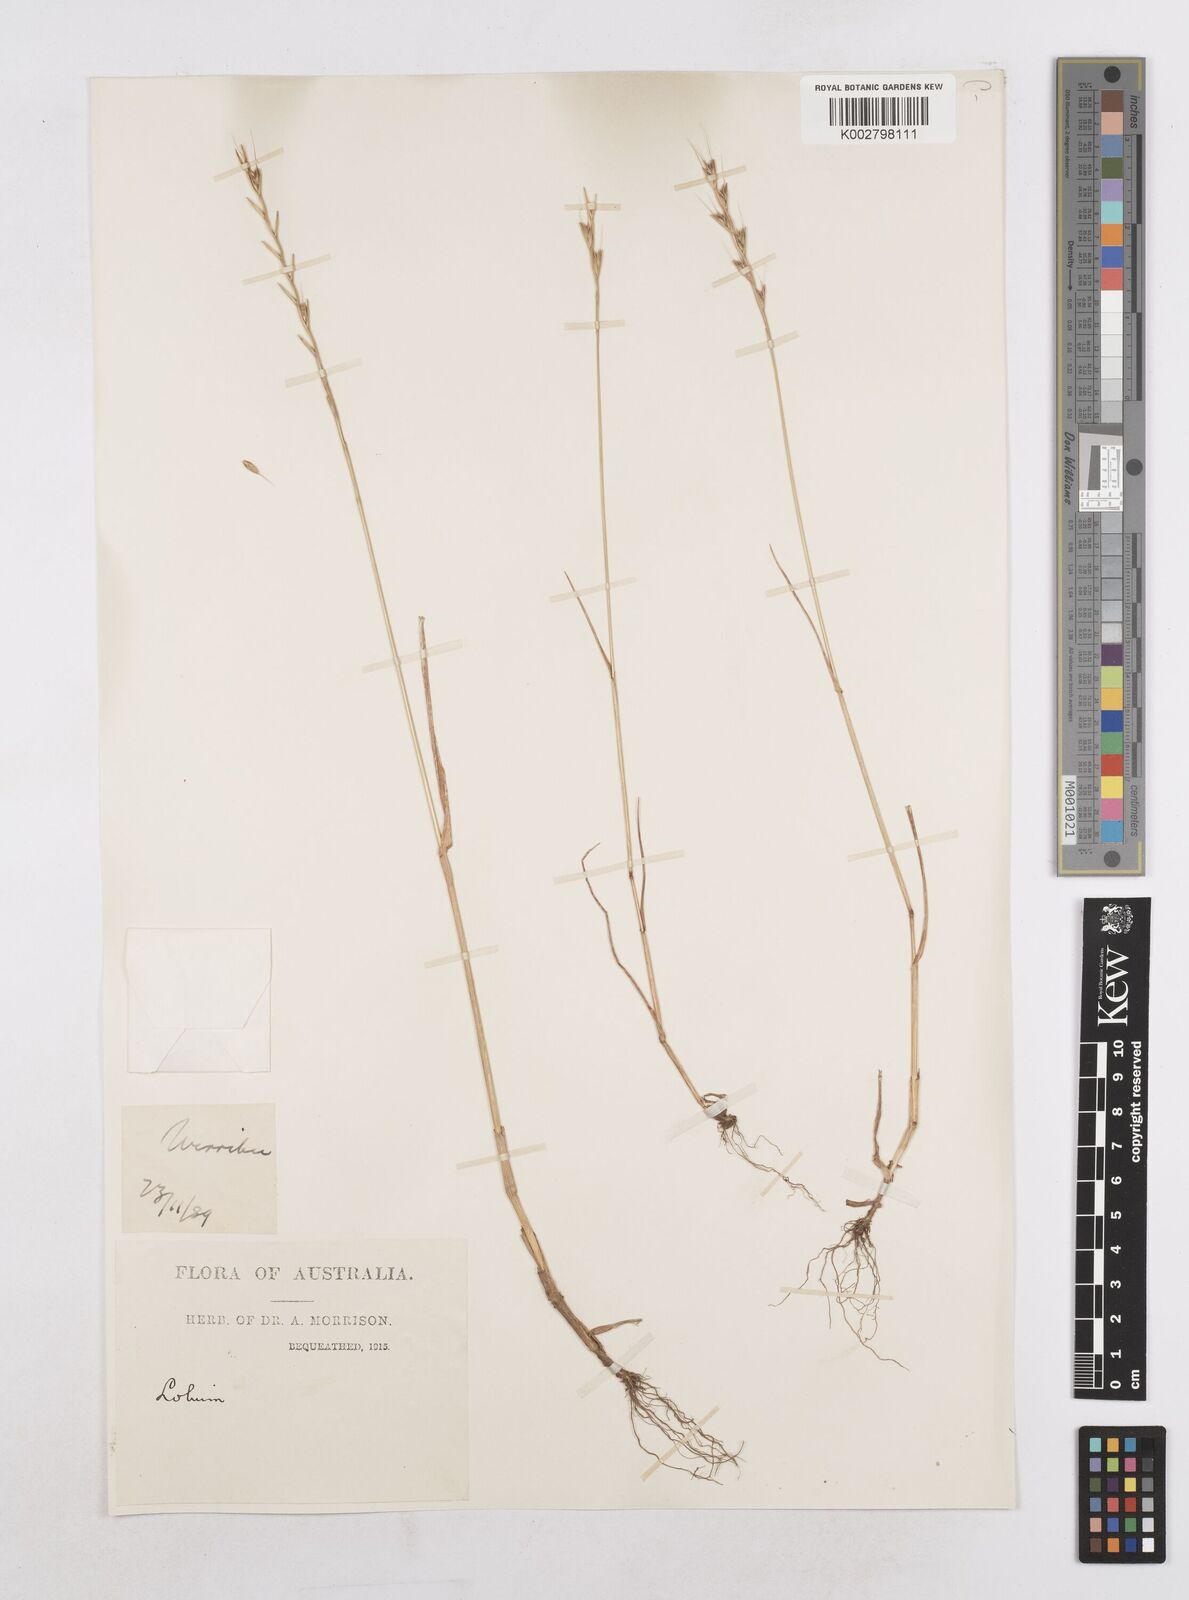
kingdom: Plantae
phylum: Tracheophyta
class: Liliopsida
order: Poales
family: Poaceae
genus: Lolium
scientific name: Lolium temulentum
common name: Darnel
